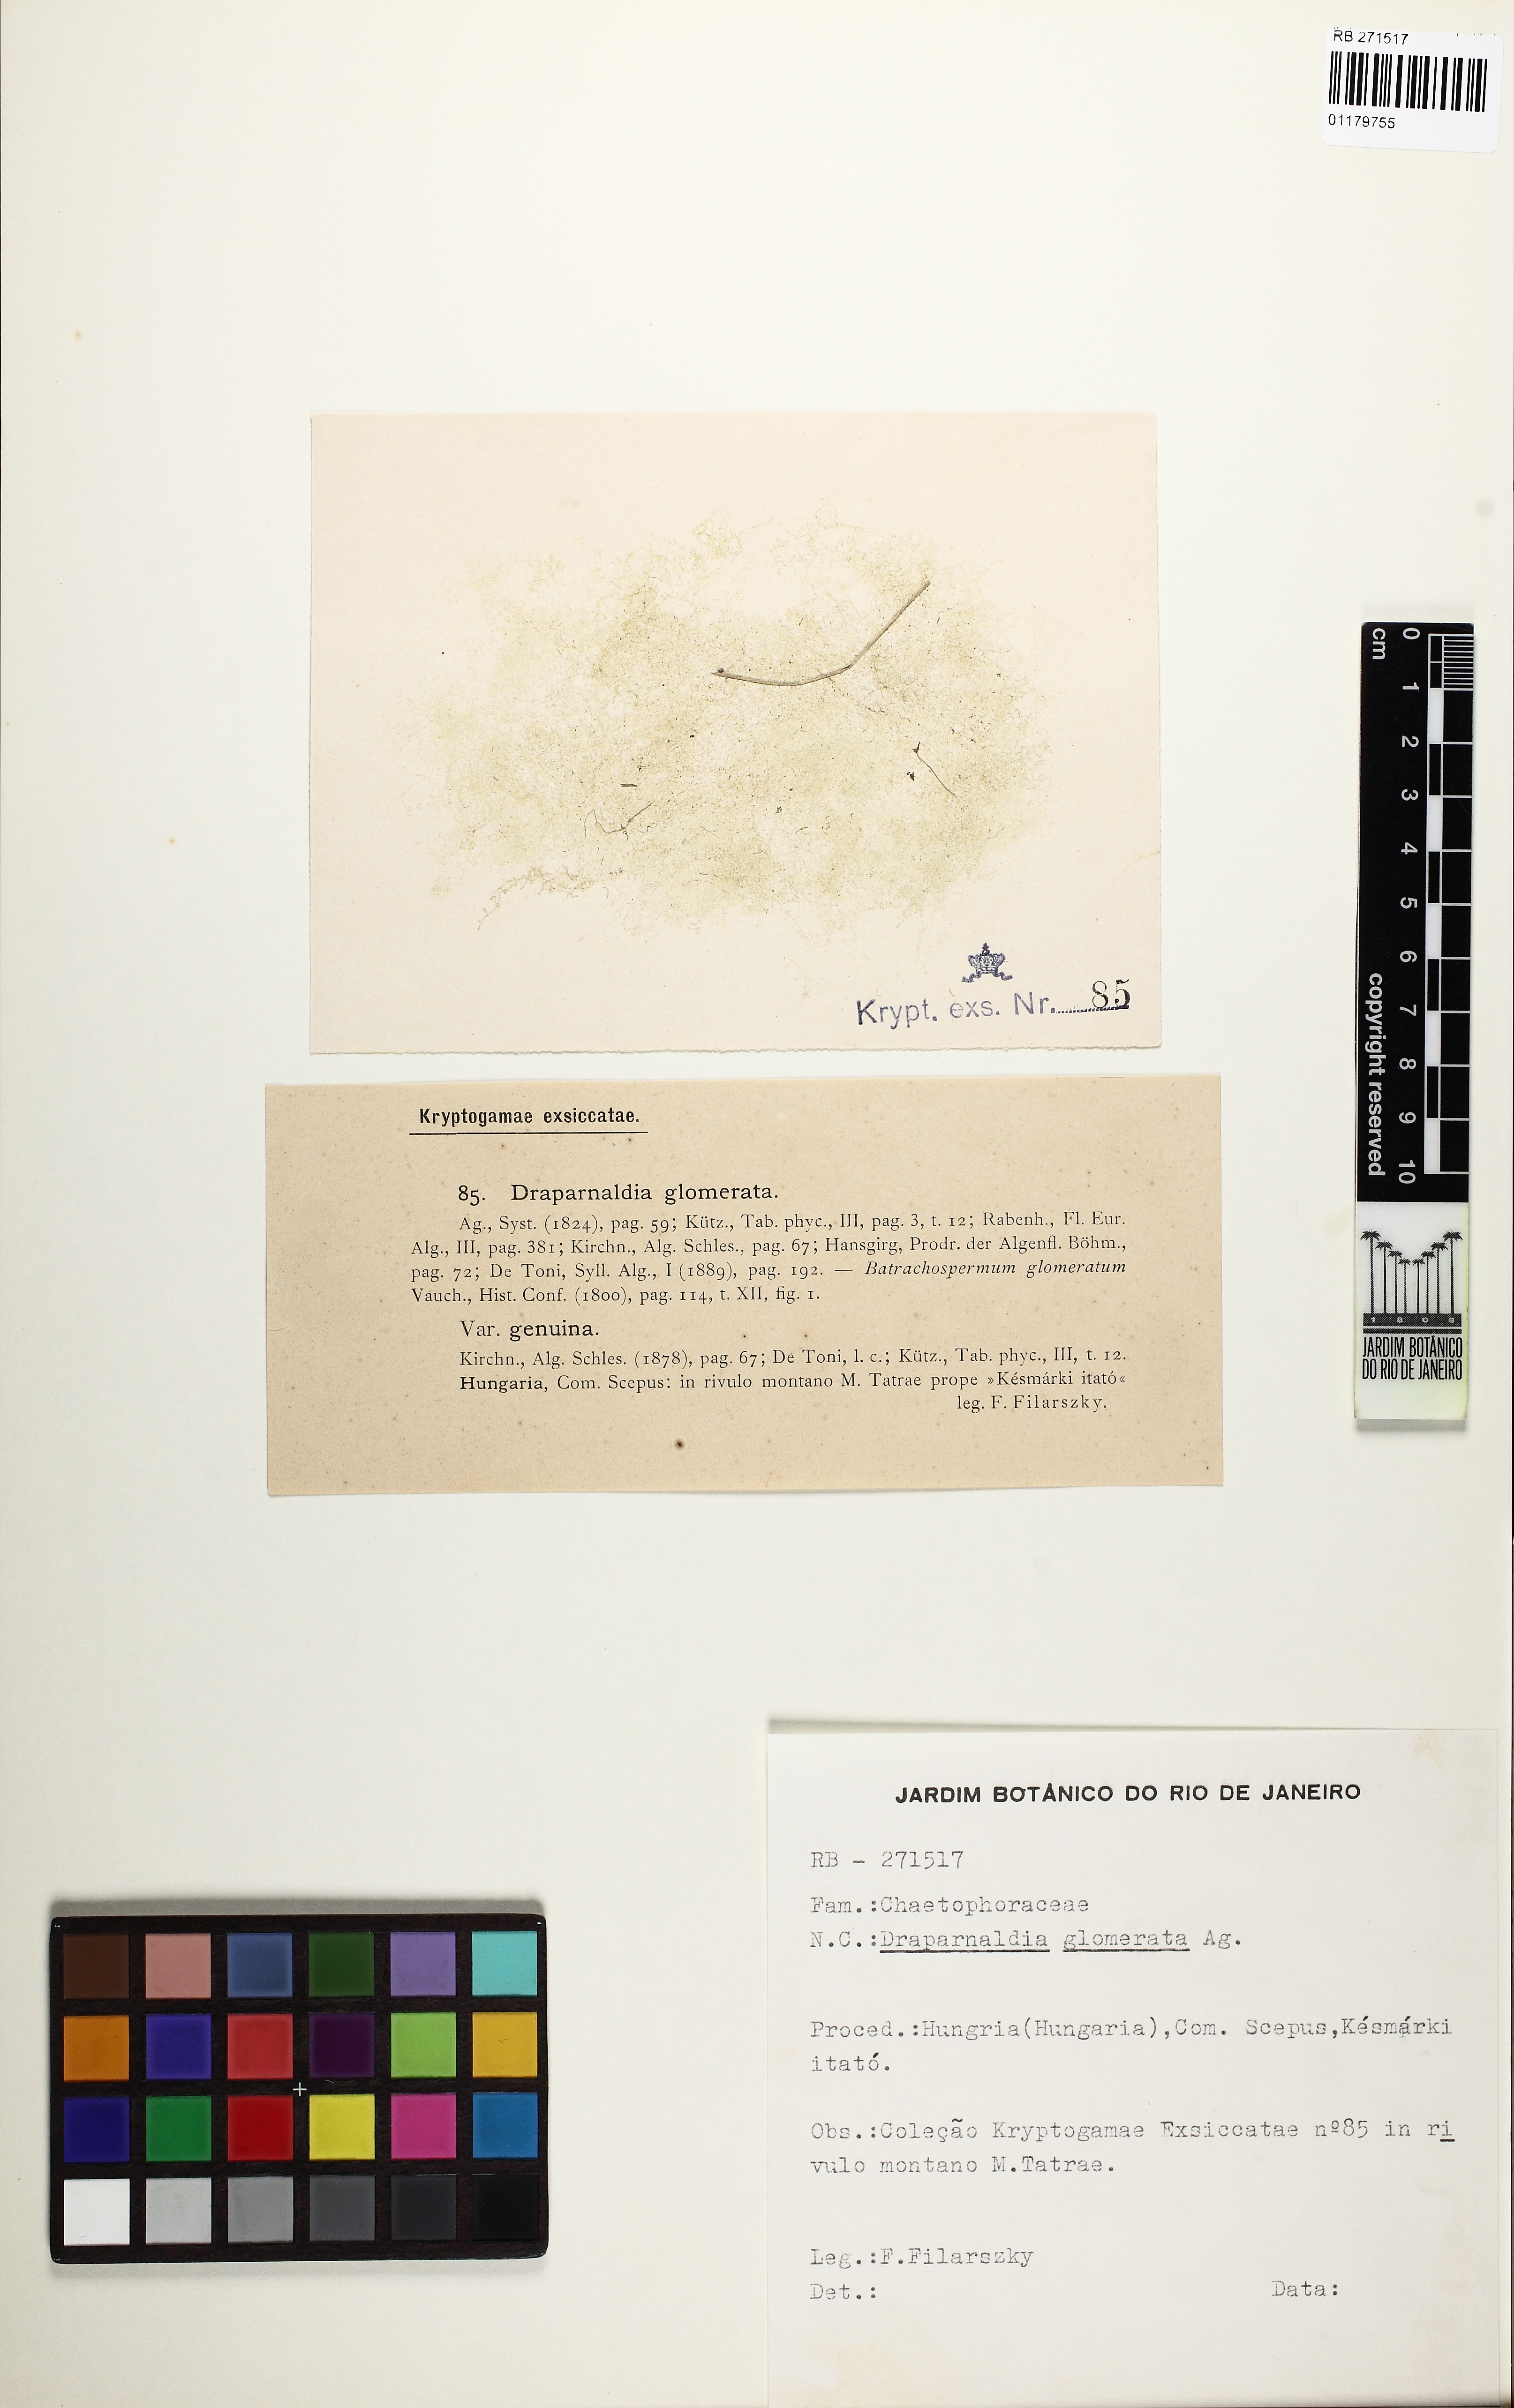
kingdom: Plantae
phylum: Chlorophyta
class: Chlorophyceae
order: Chaetophorales
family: Chaetophoraceae
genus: Draparnaldia
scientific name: Draparnaldia mutabilis
